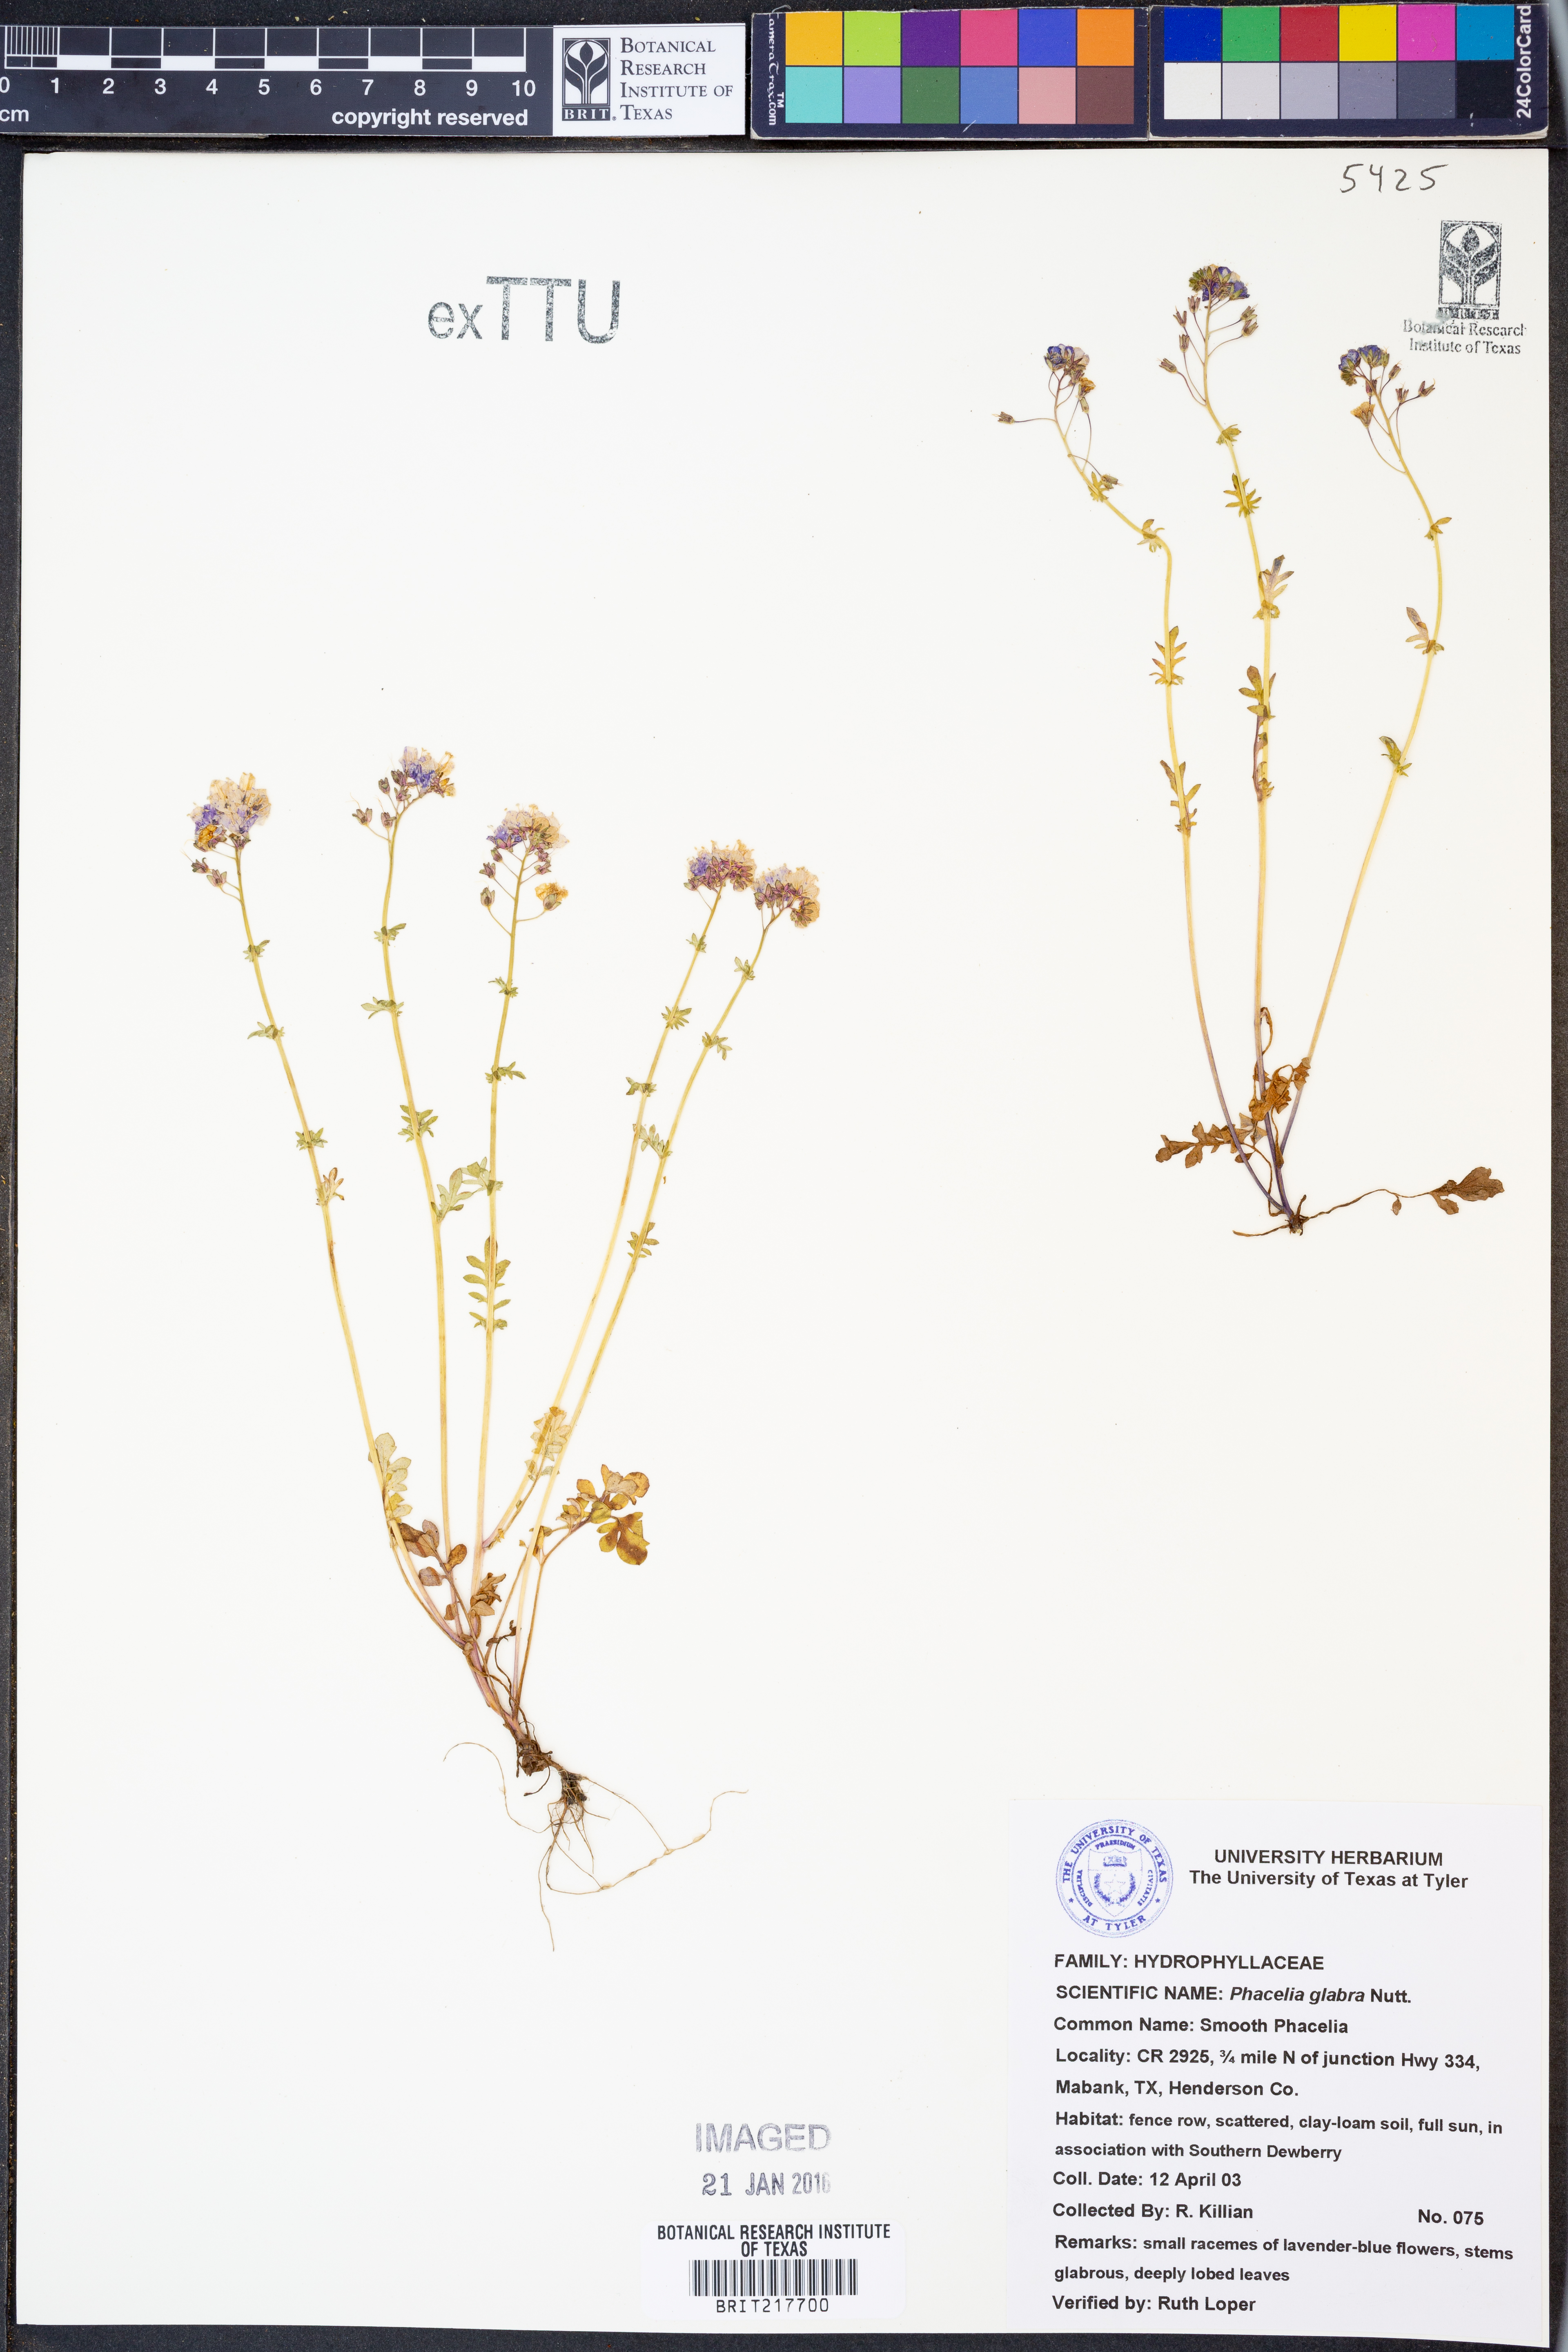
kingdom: Plantae
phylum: Tracheophyta
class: Magnoliopsida
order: Boraginales
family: Hydrophyllaceae
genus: Phacelia
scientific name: Phacelia glabra
